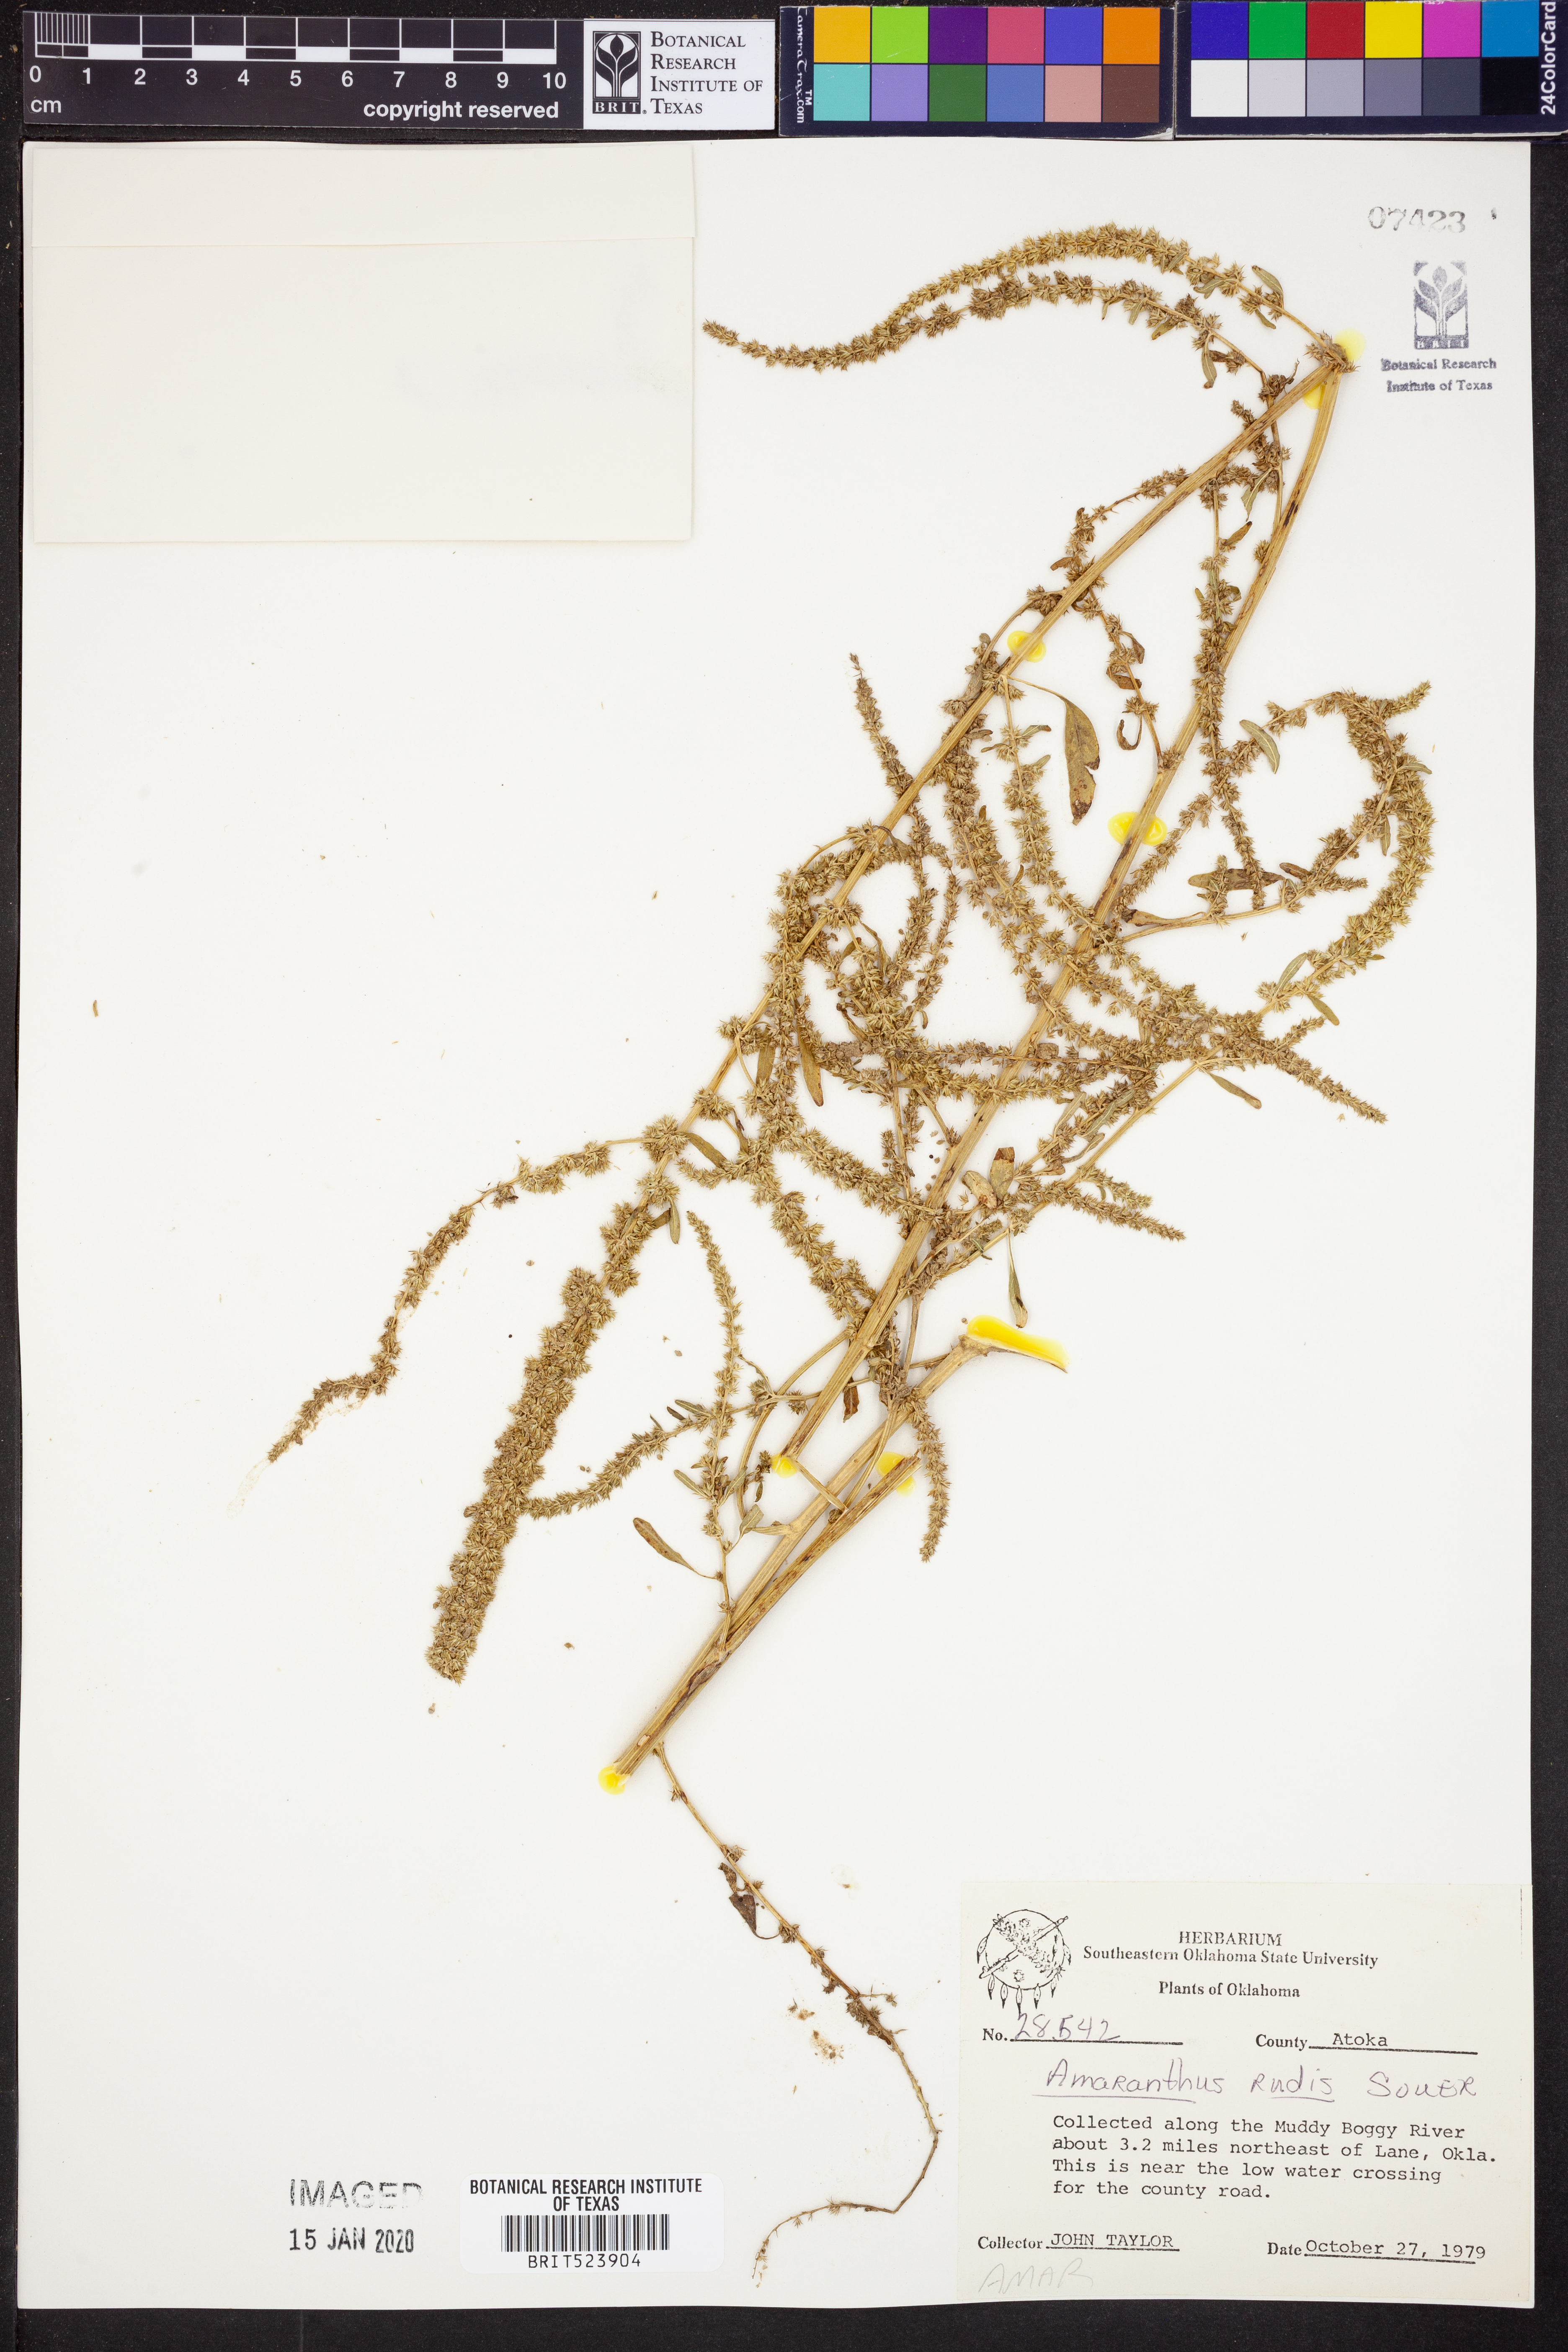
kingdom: Plantae
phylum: Tracheophyta
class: Magnoliopsida
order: Caryophyllales
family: Amaranthaceae
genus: Amaranthus
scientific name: Amaranthus tuberculatus
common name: Rough-fruit amaranth
